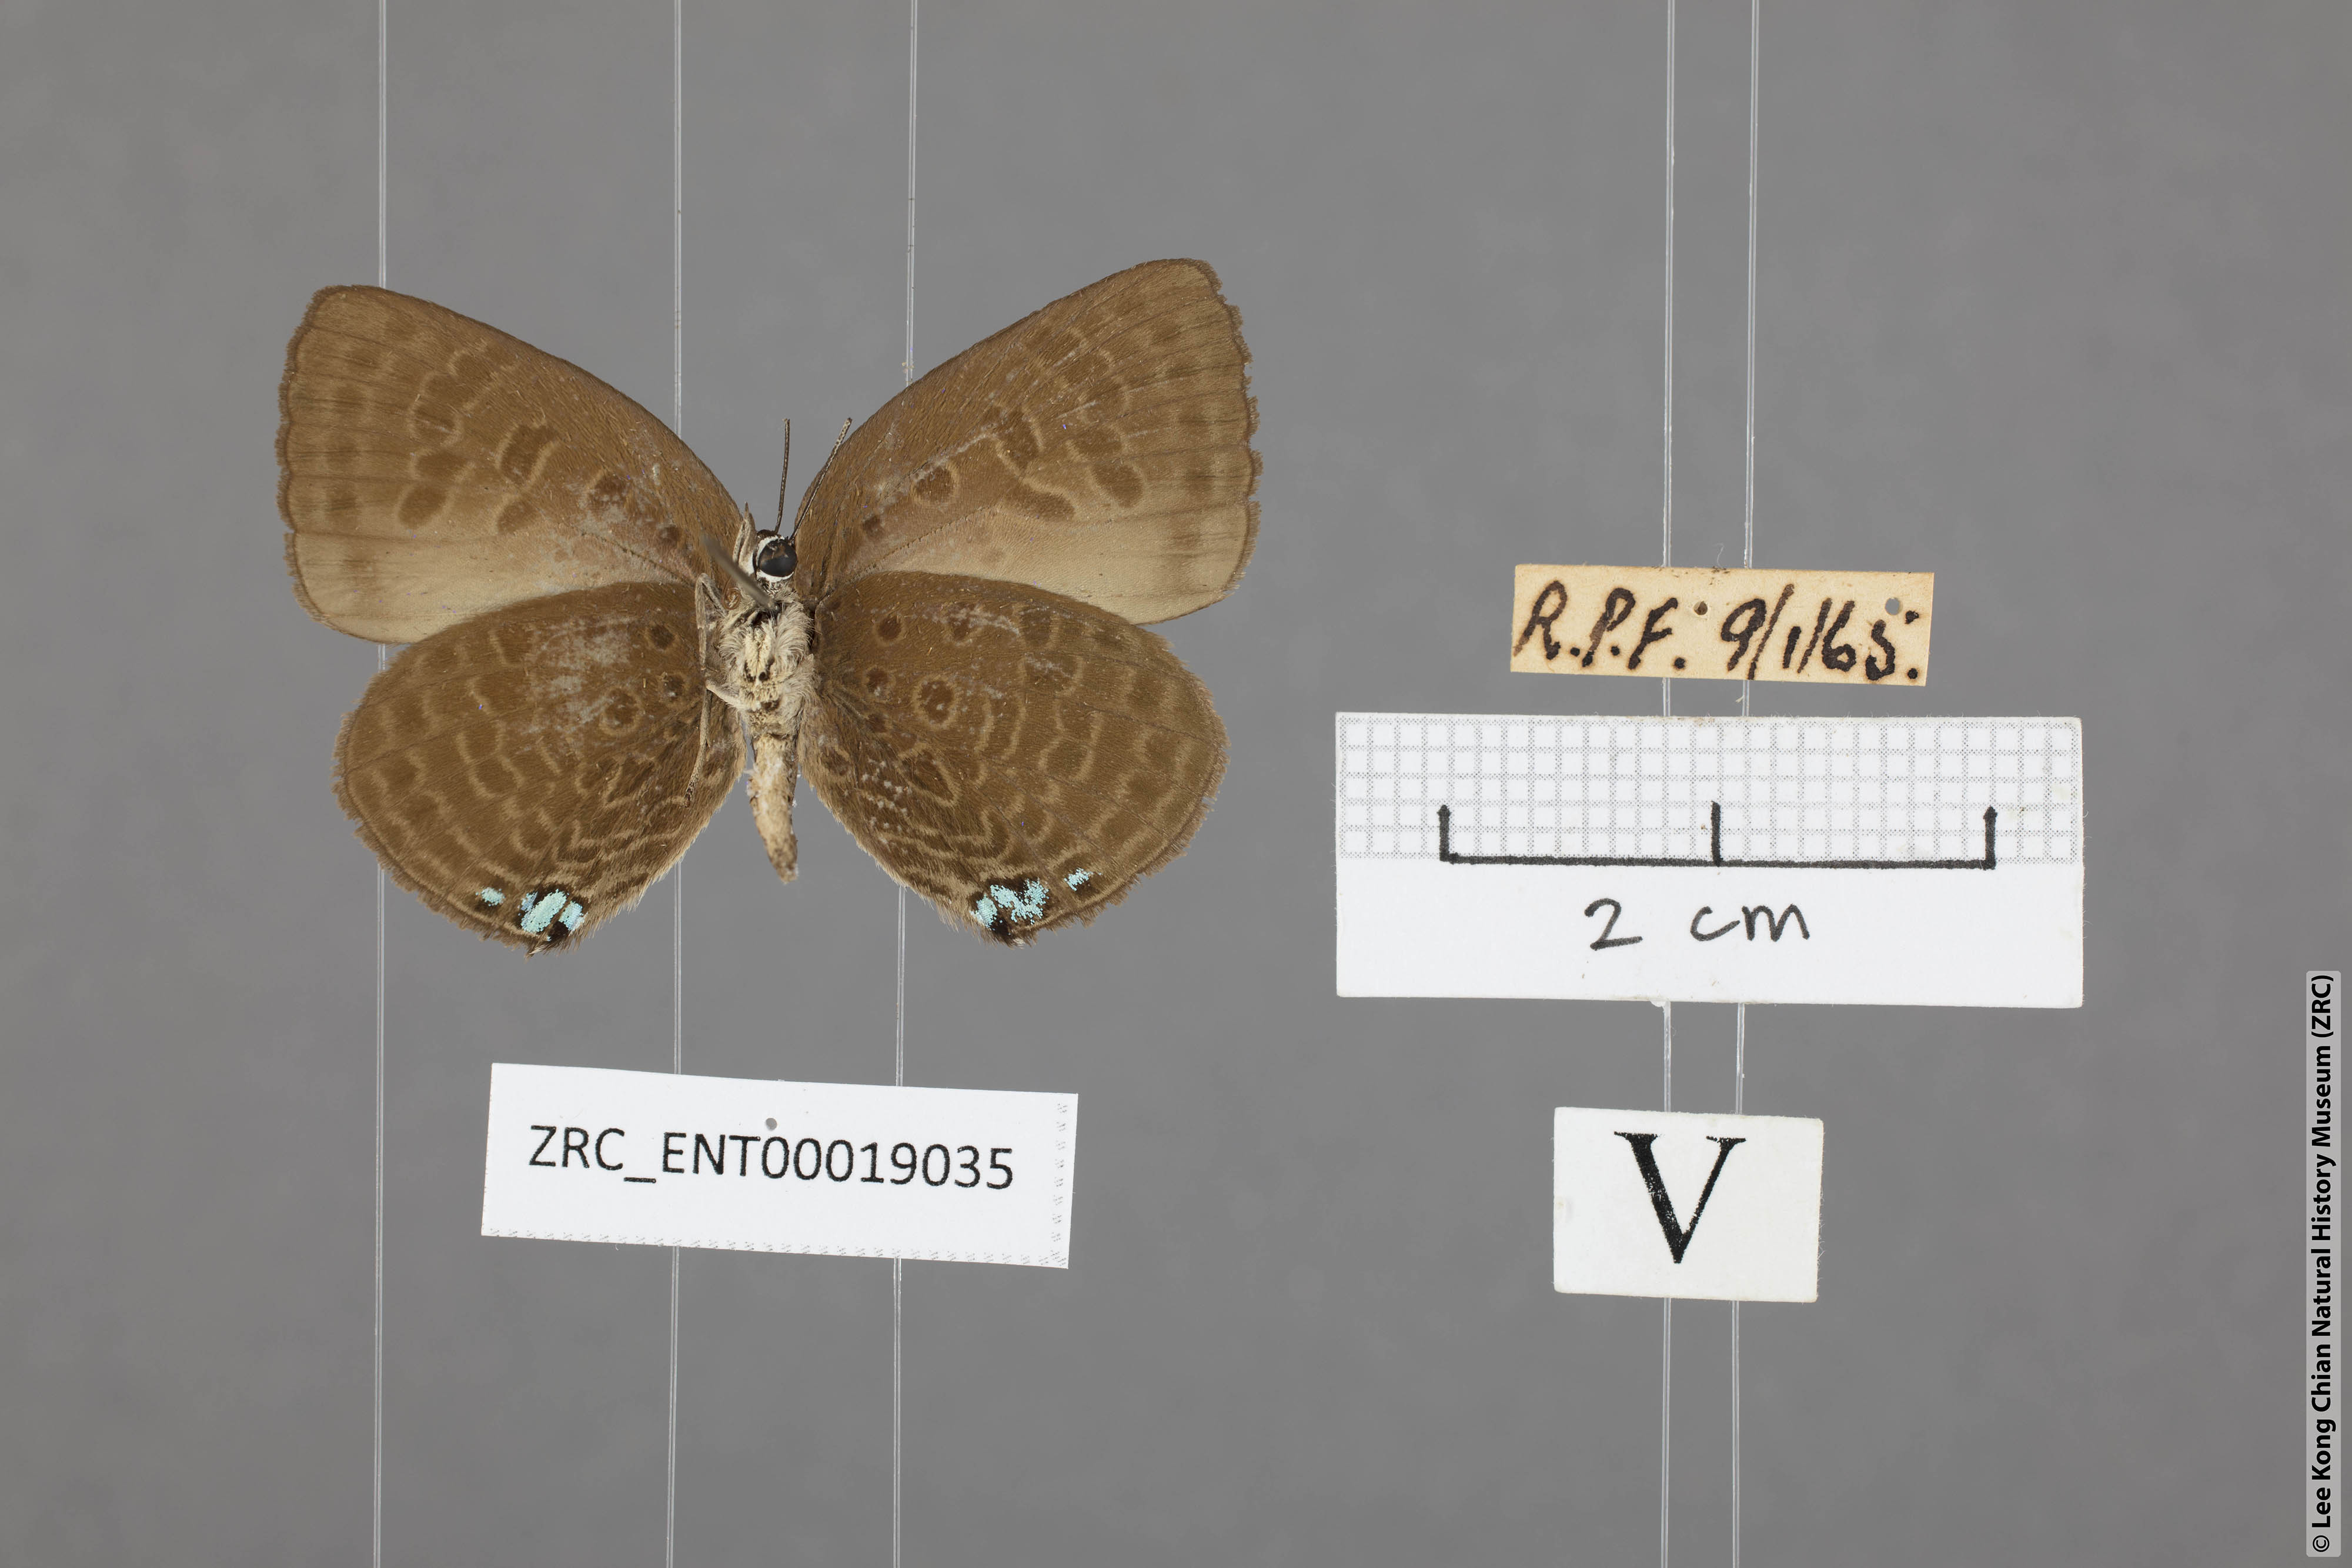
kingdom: Animalia
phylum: Arthropoda
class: Insecta
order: Lepidoptera
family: Lycaenidae
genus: Arhopala
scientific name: Arhopala agesilaus
